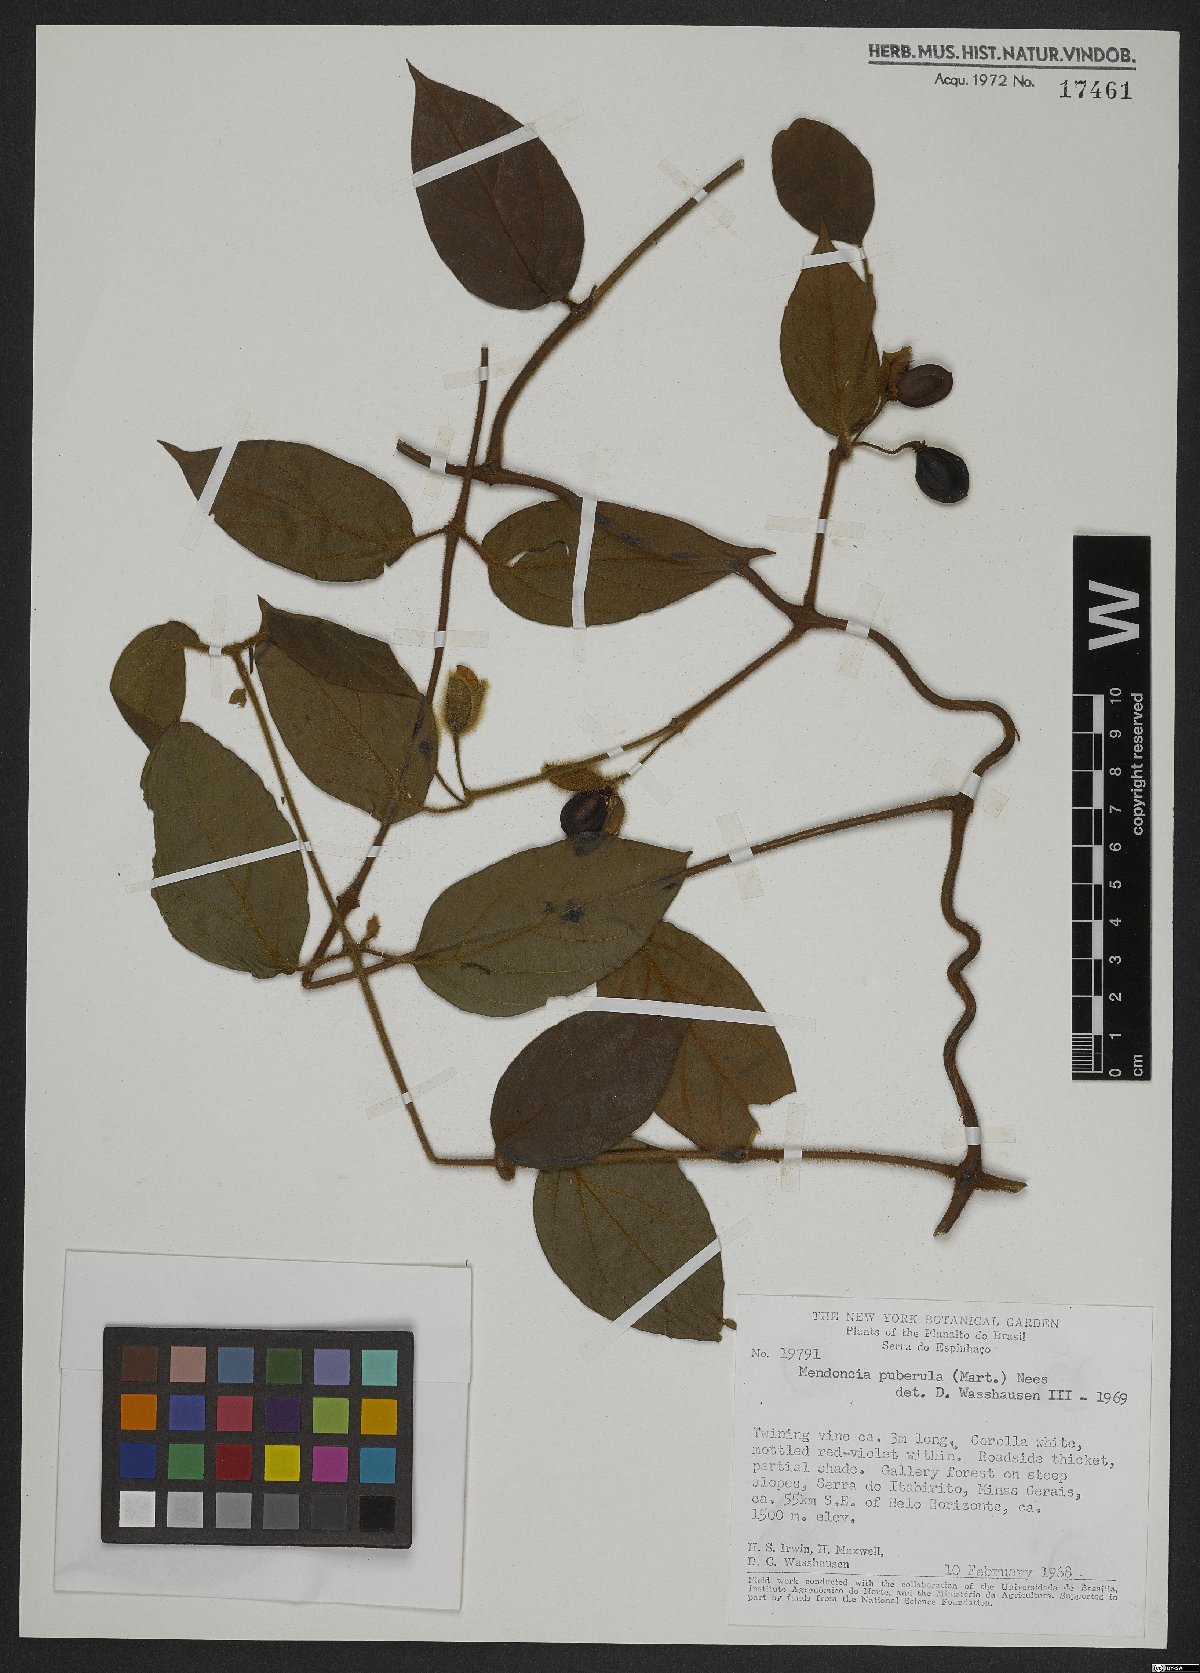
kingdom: Plantae
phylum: Tracheophyta
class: Magnoliopsida
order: Lamiales
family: Acanthaceae
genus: Mendoncia
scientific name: Mendoncia puberula
